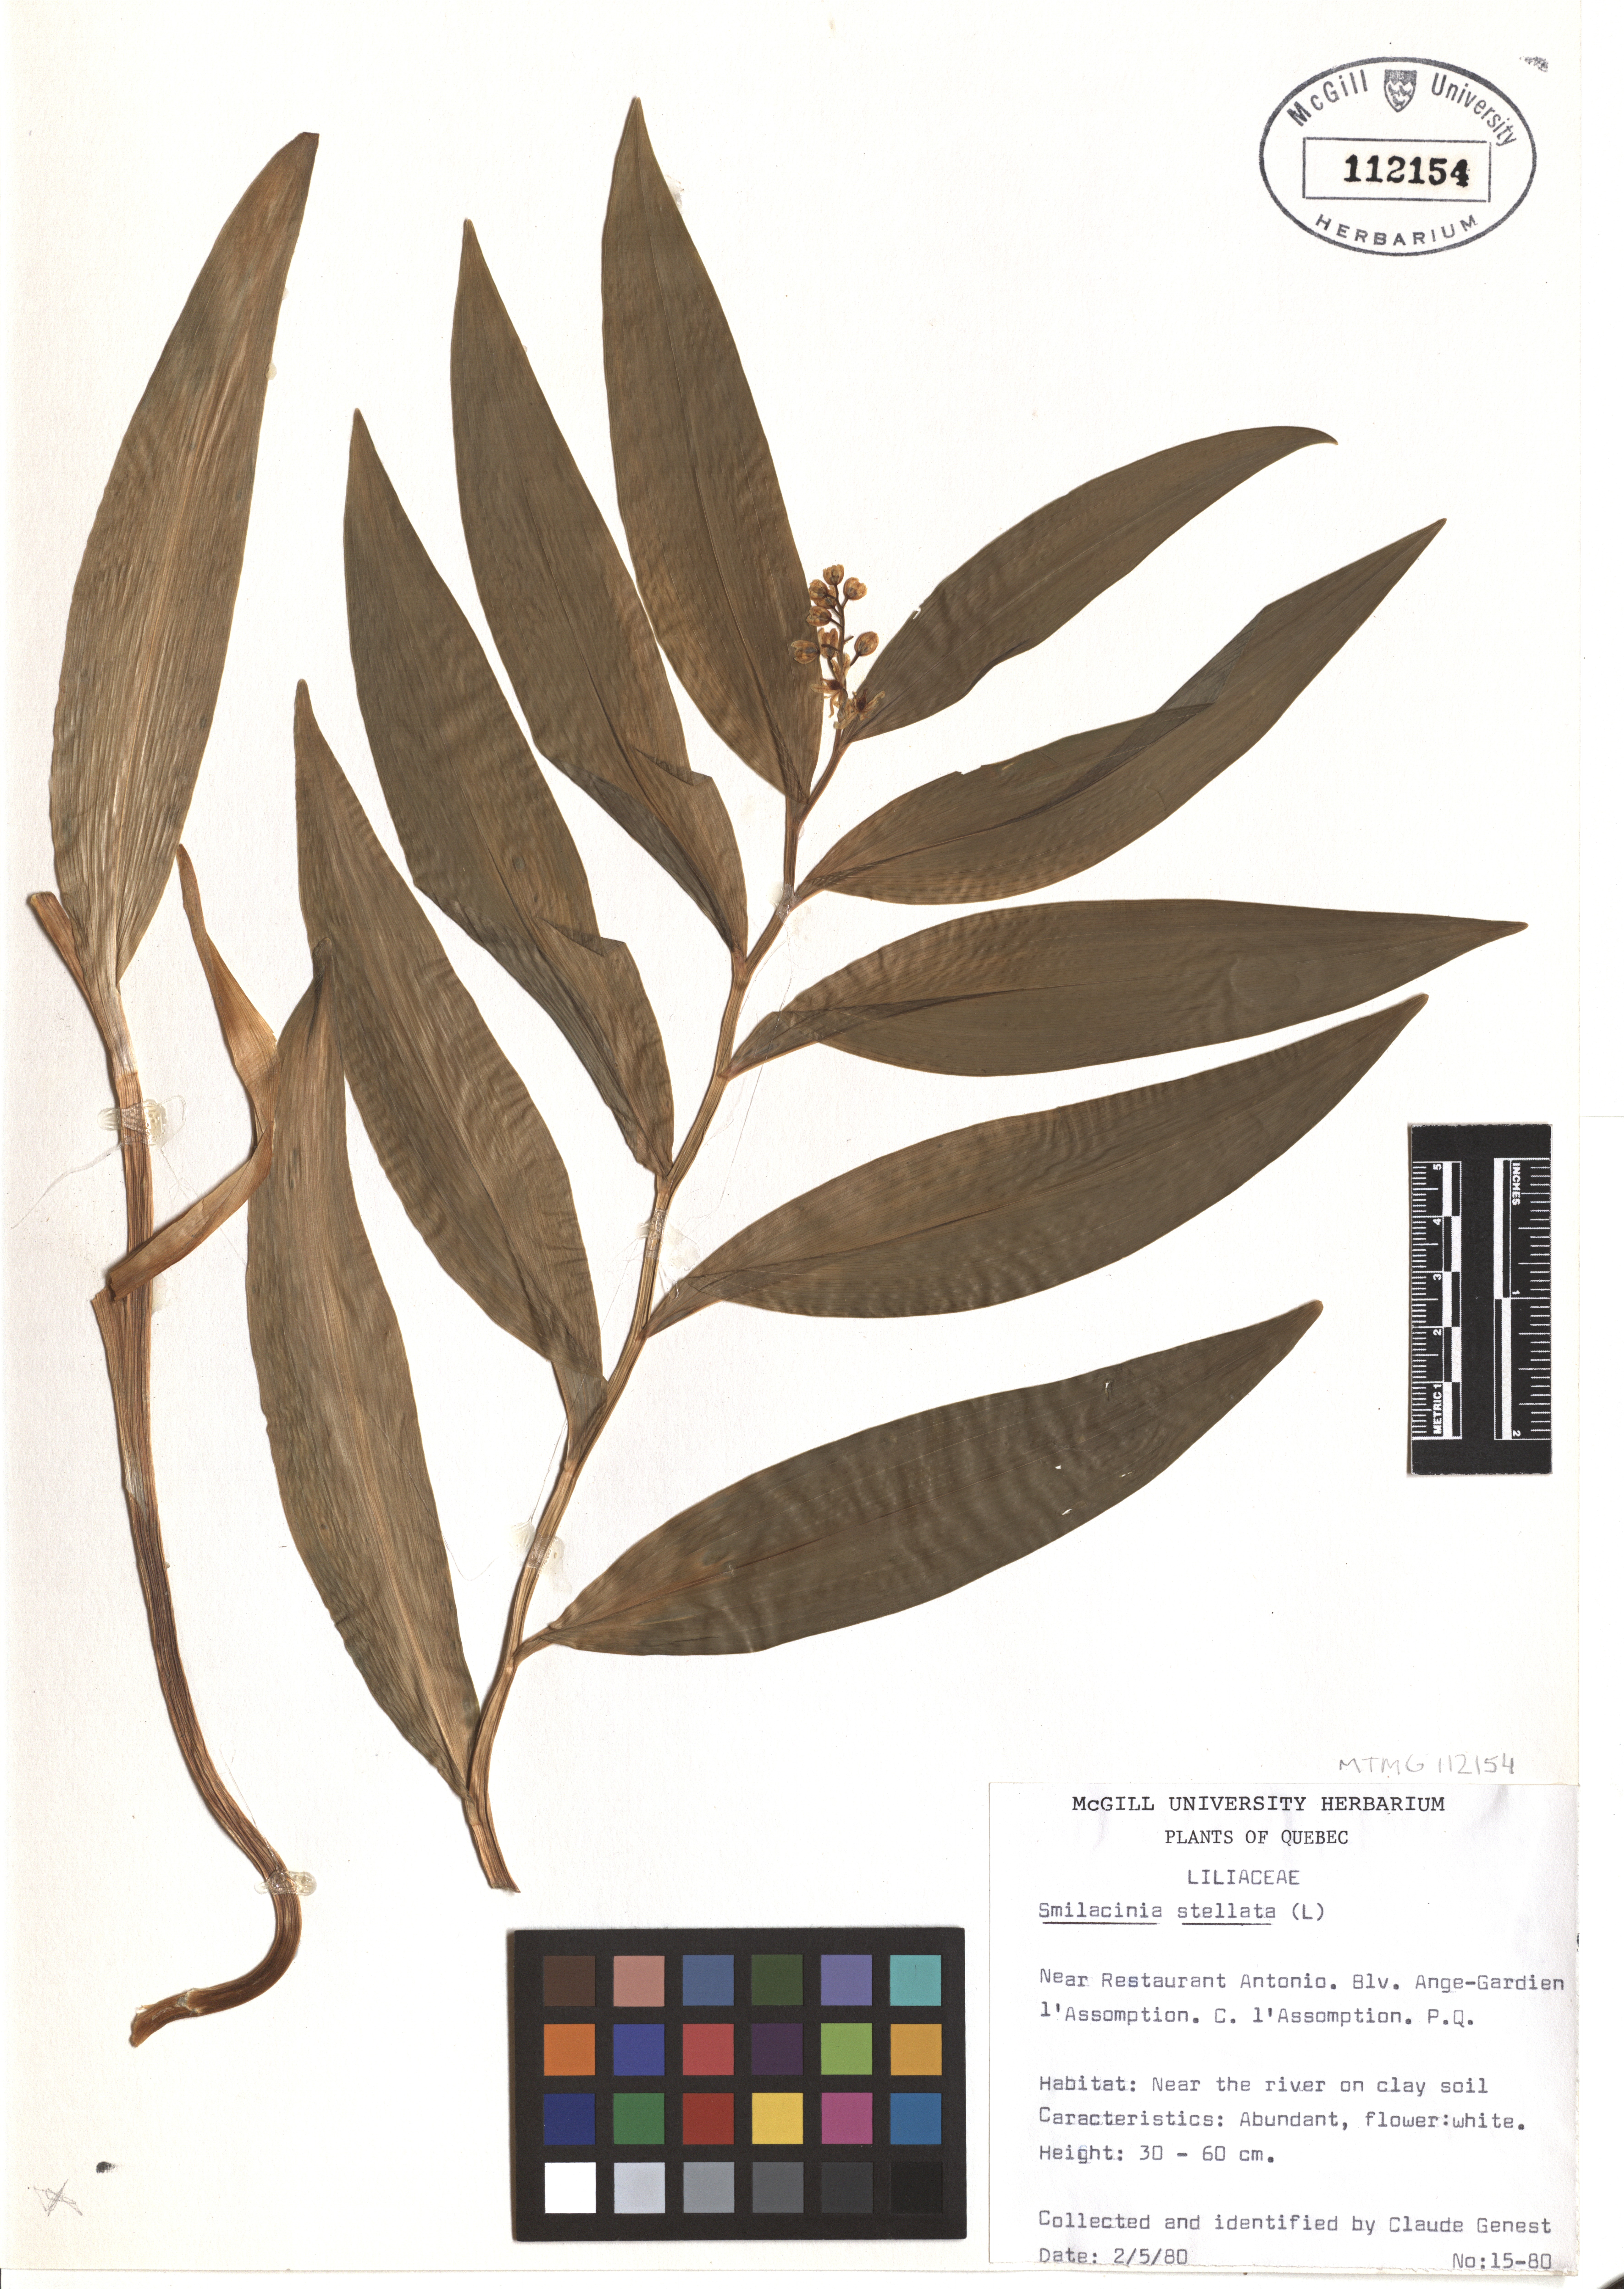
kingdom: Plantae
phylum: Tracheophyta
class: Liliopsida
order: Asparagales
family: Asparagaceae
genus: Maianthemum
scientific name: Maianthemum stellatum
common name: Little false solomon's seal
